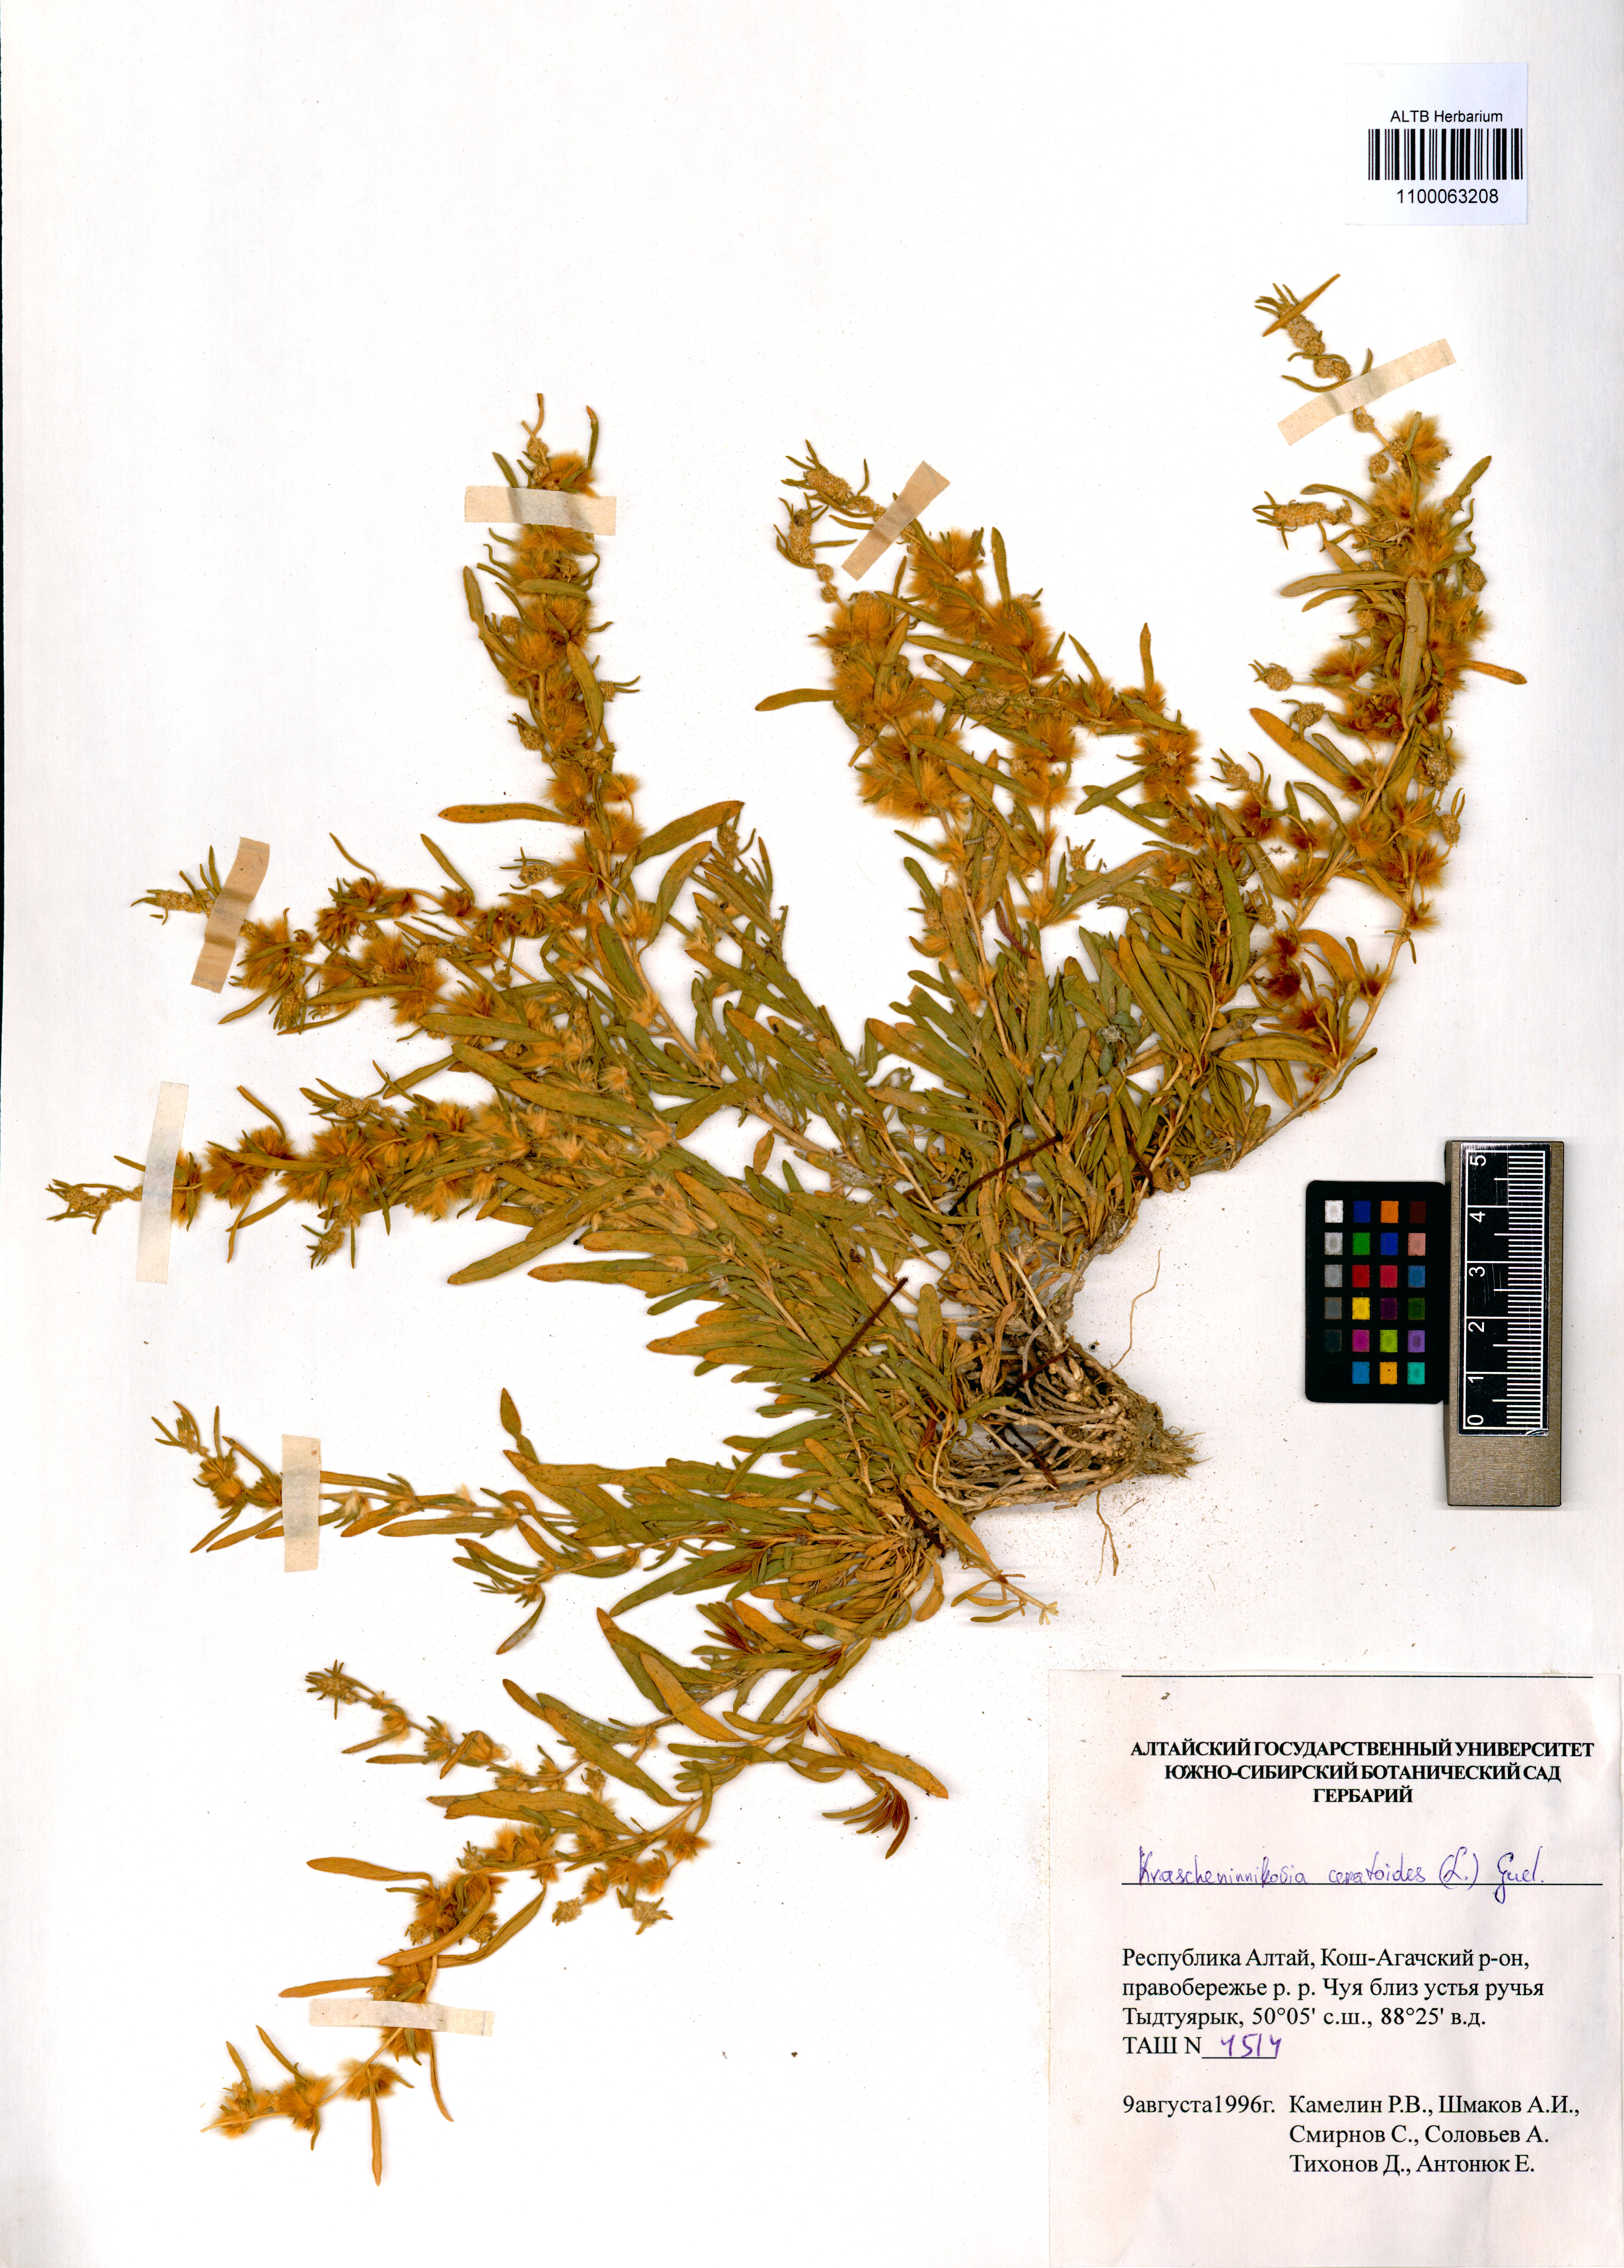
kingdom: Plantae
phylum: Tracheophyta
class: Magnoliopsida
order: Caryophyllales
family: Amaranthaceae
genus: Krascheninnikovia
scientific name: Krascheninnikovia ceratoides
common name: Pamirian winterfat
